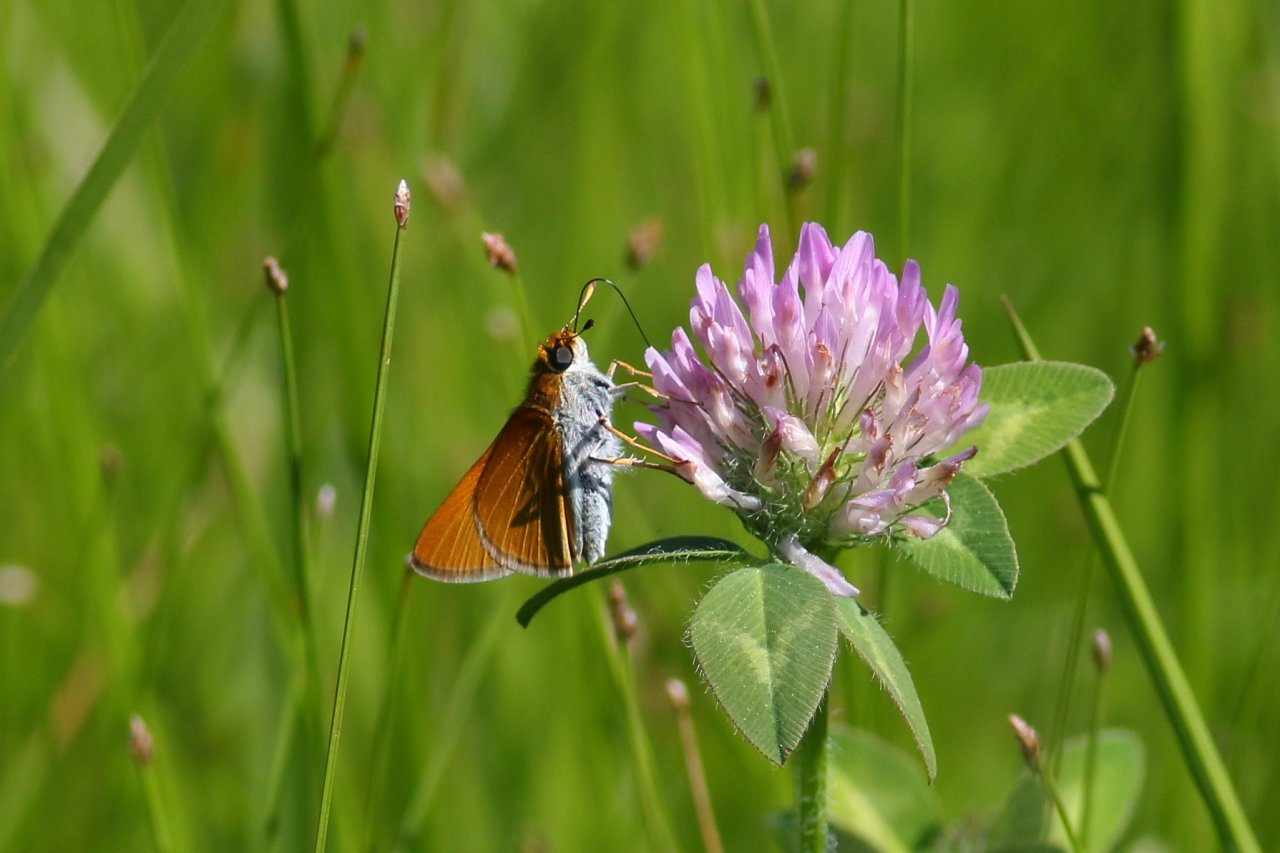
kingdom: Animalia
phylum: Arthropoda
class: Insecta
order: Lepidoptera
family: Hesperiidae
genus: Euphyes
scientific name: Euphyes bimacula
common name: Two-spotted Skipper
